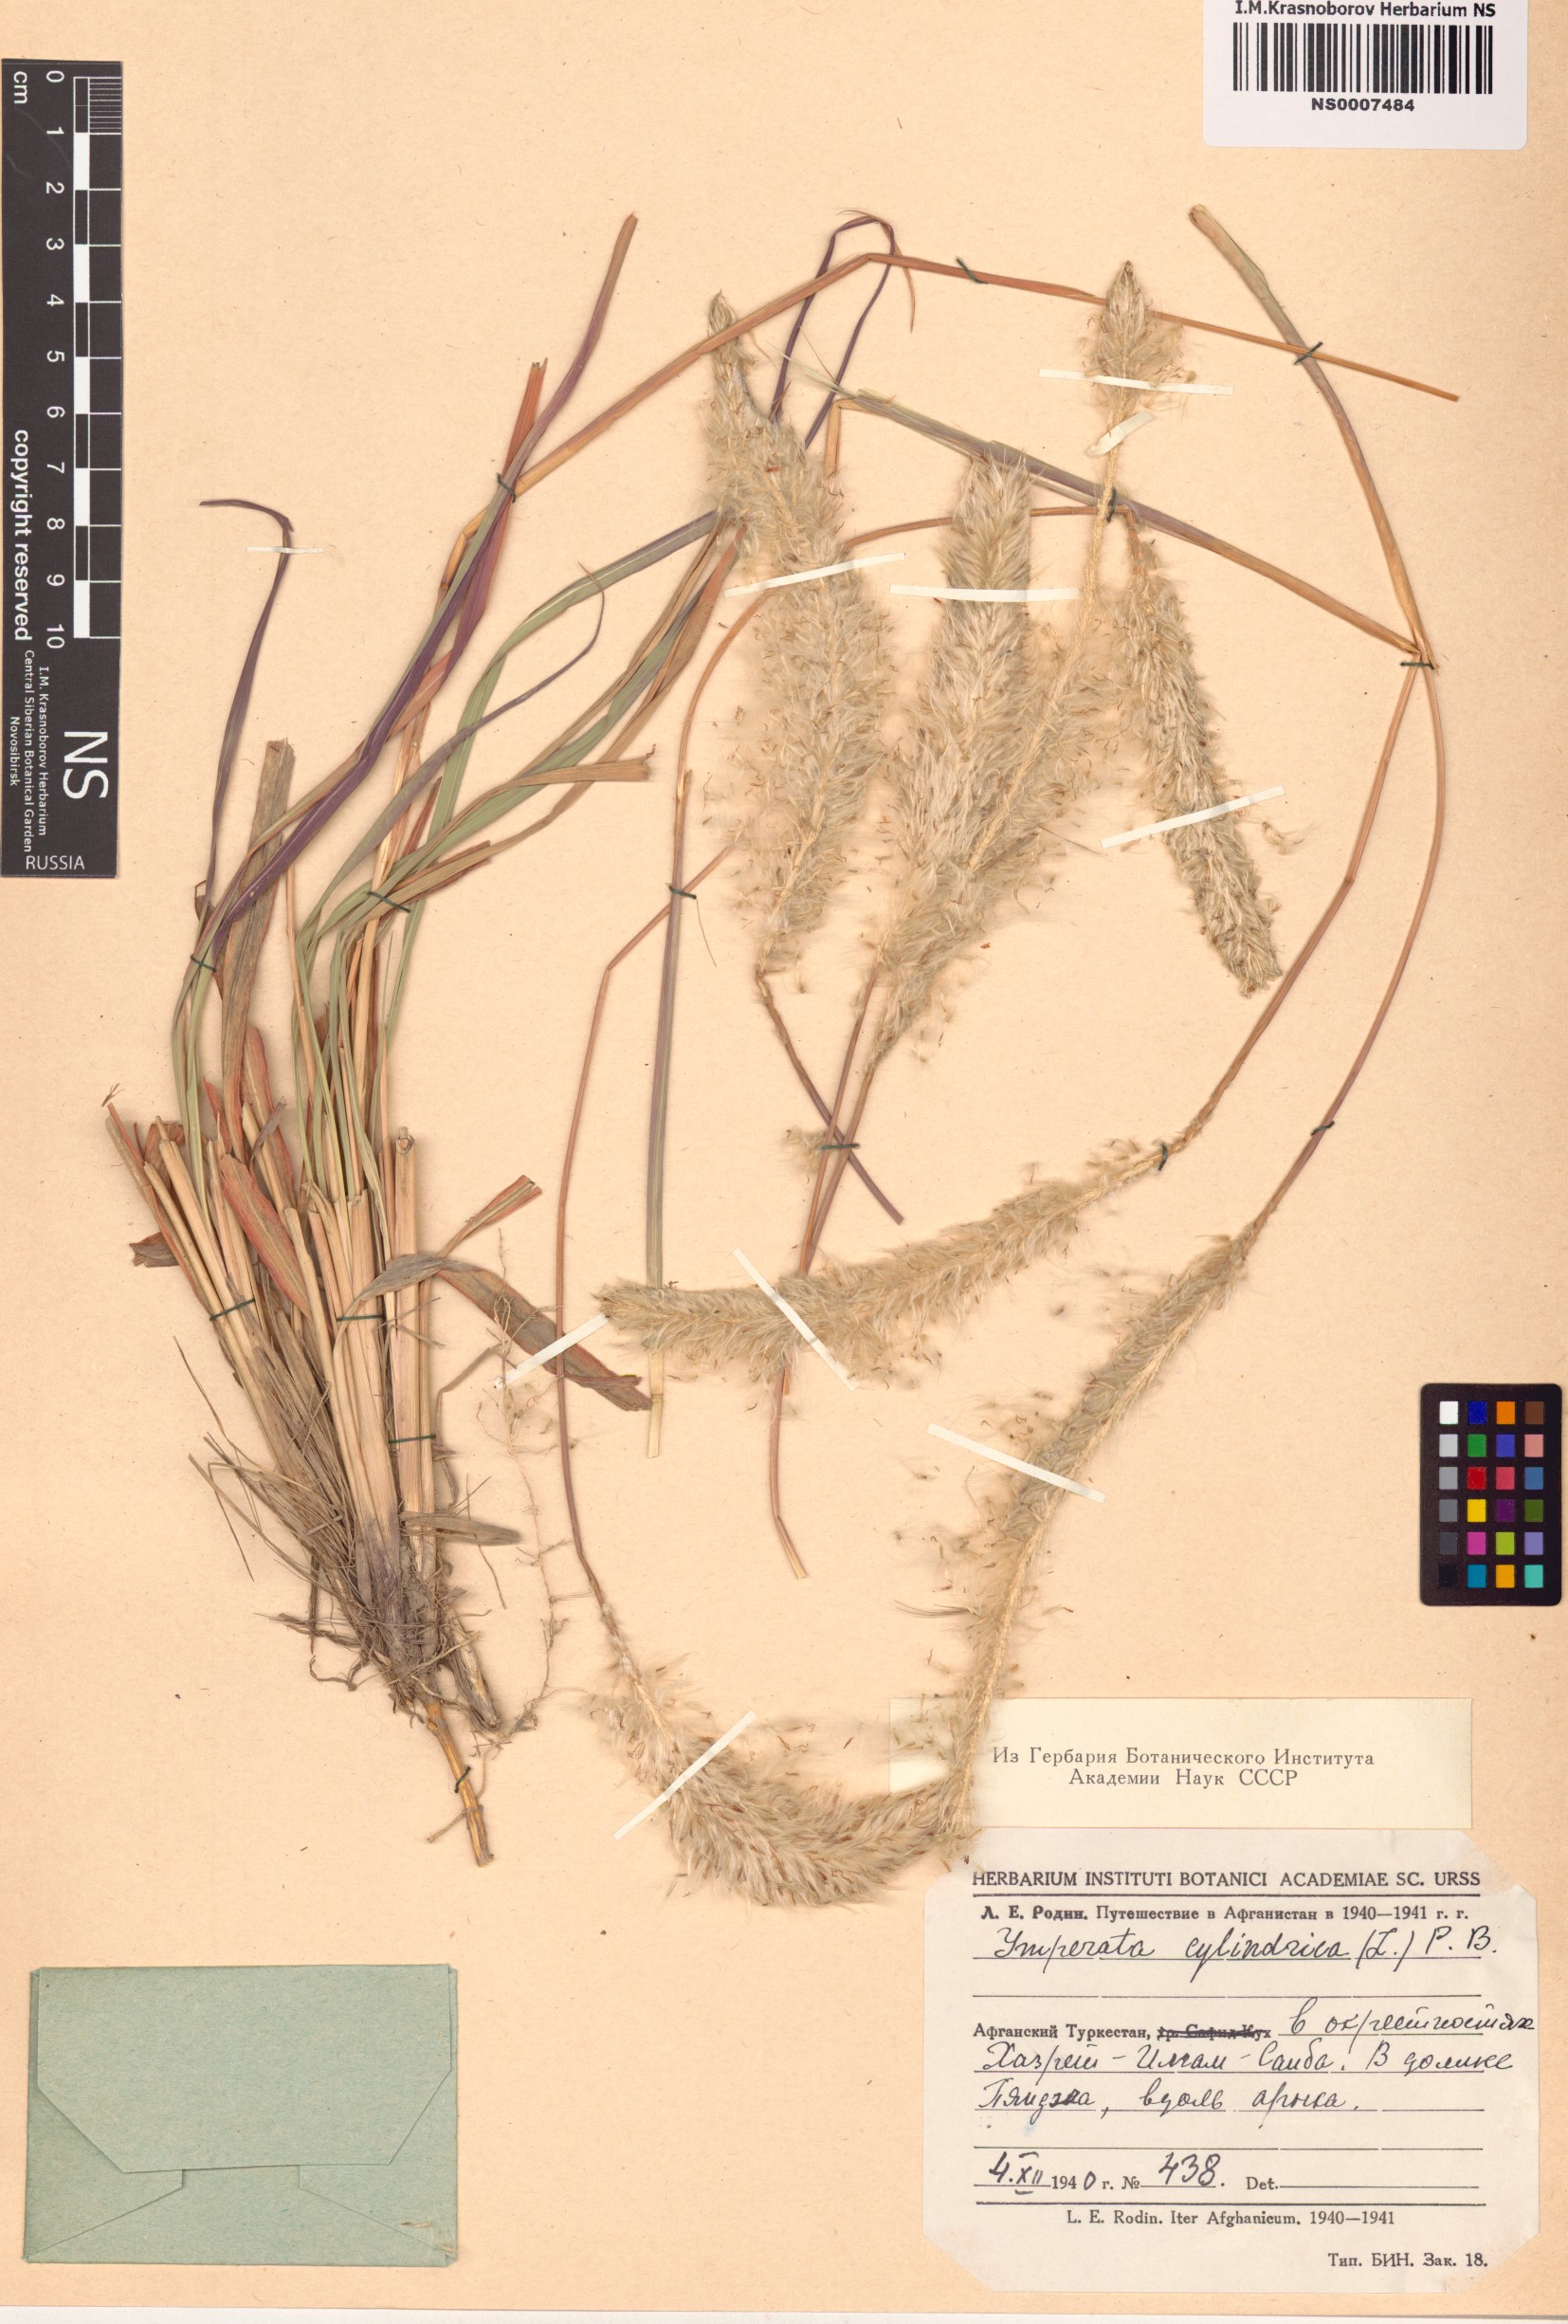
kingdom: Plantae
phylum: Tracheophyta
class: Liliopsida
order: Poales
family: Poaceae
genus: Imperata
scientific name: Imperata cylindrica
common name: Cogongrass
